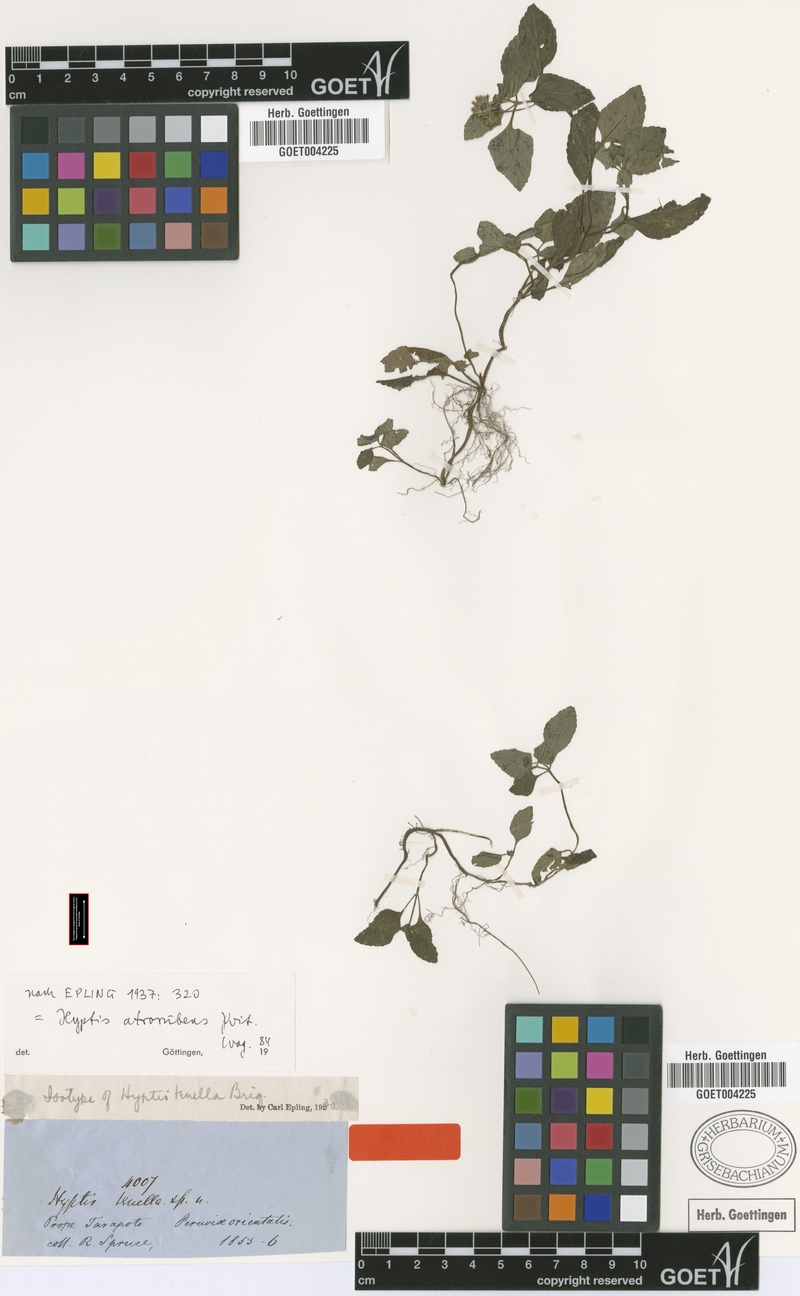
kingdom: Plantae
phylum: Tracheophyta
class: Magnoliopsida
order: Lamiales
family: Lamiaceae
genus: Hyptis
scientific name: Hyptis atrorubens
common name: Lanmant
